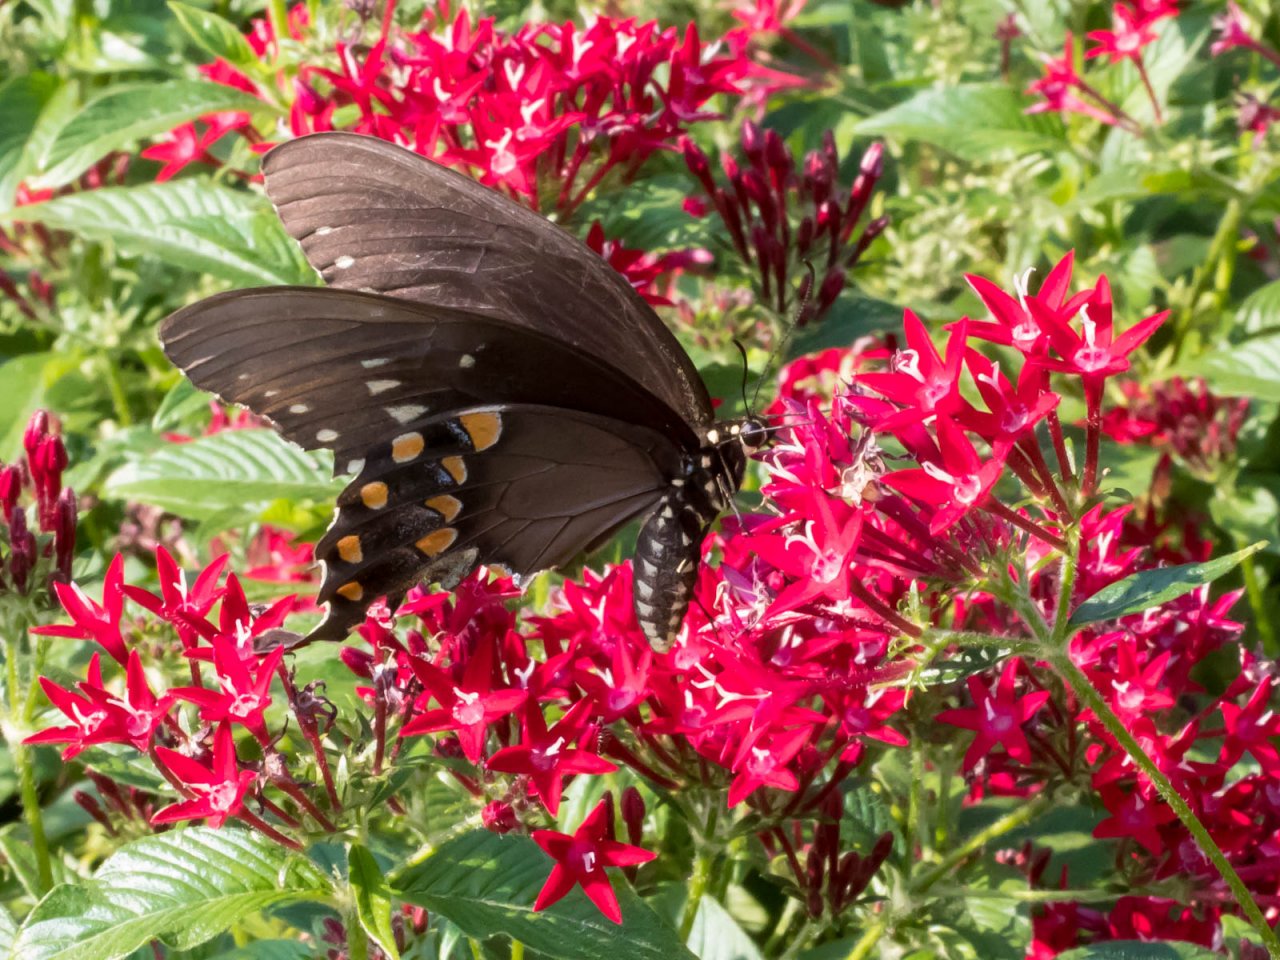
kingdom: Animalia
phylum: Arthropoda
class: Insecta
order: Lepidoptera
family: Papilionidae
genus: Pterourus
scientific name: Pterourus troilus
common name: Spicebush Swallowtail
